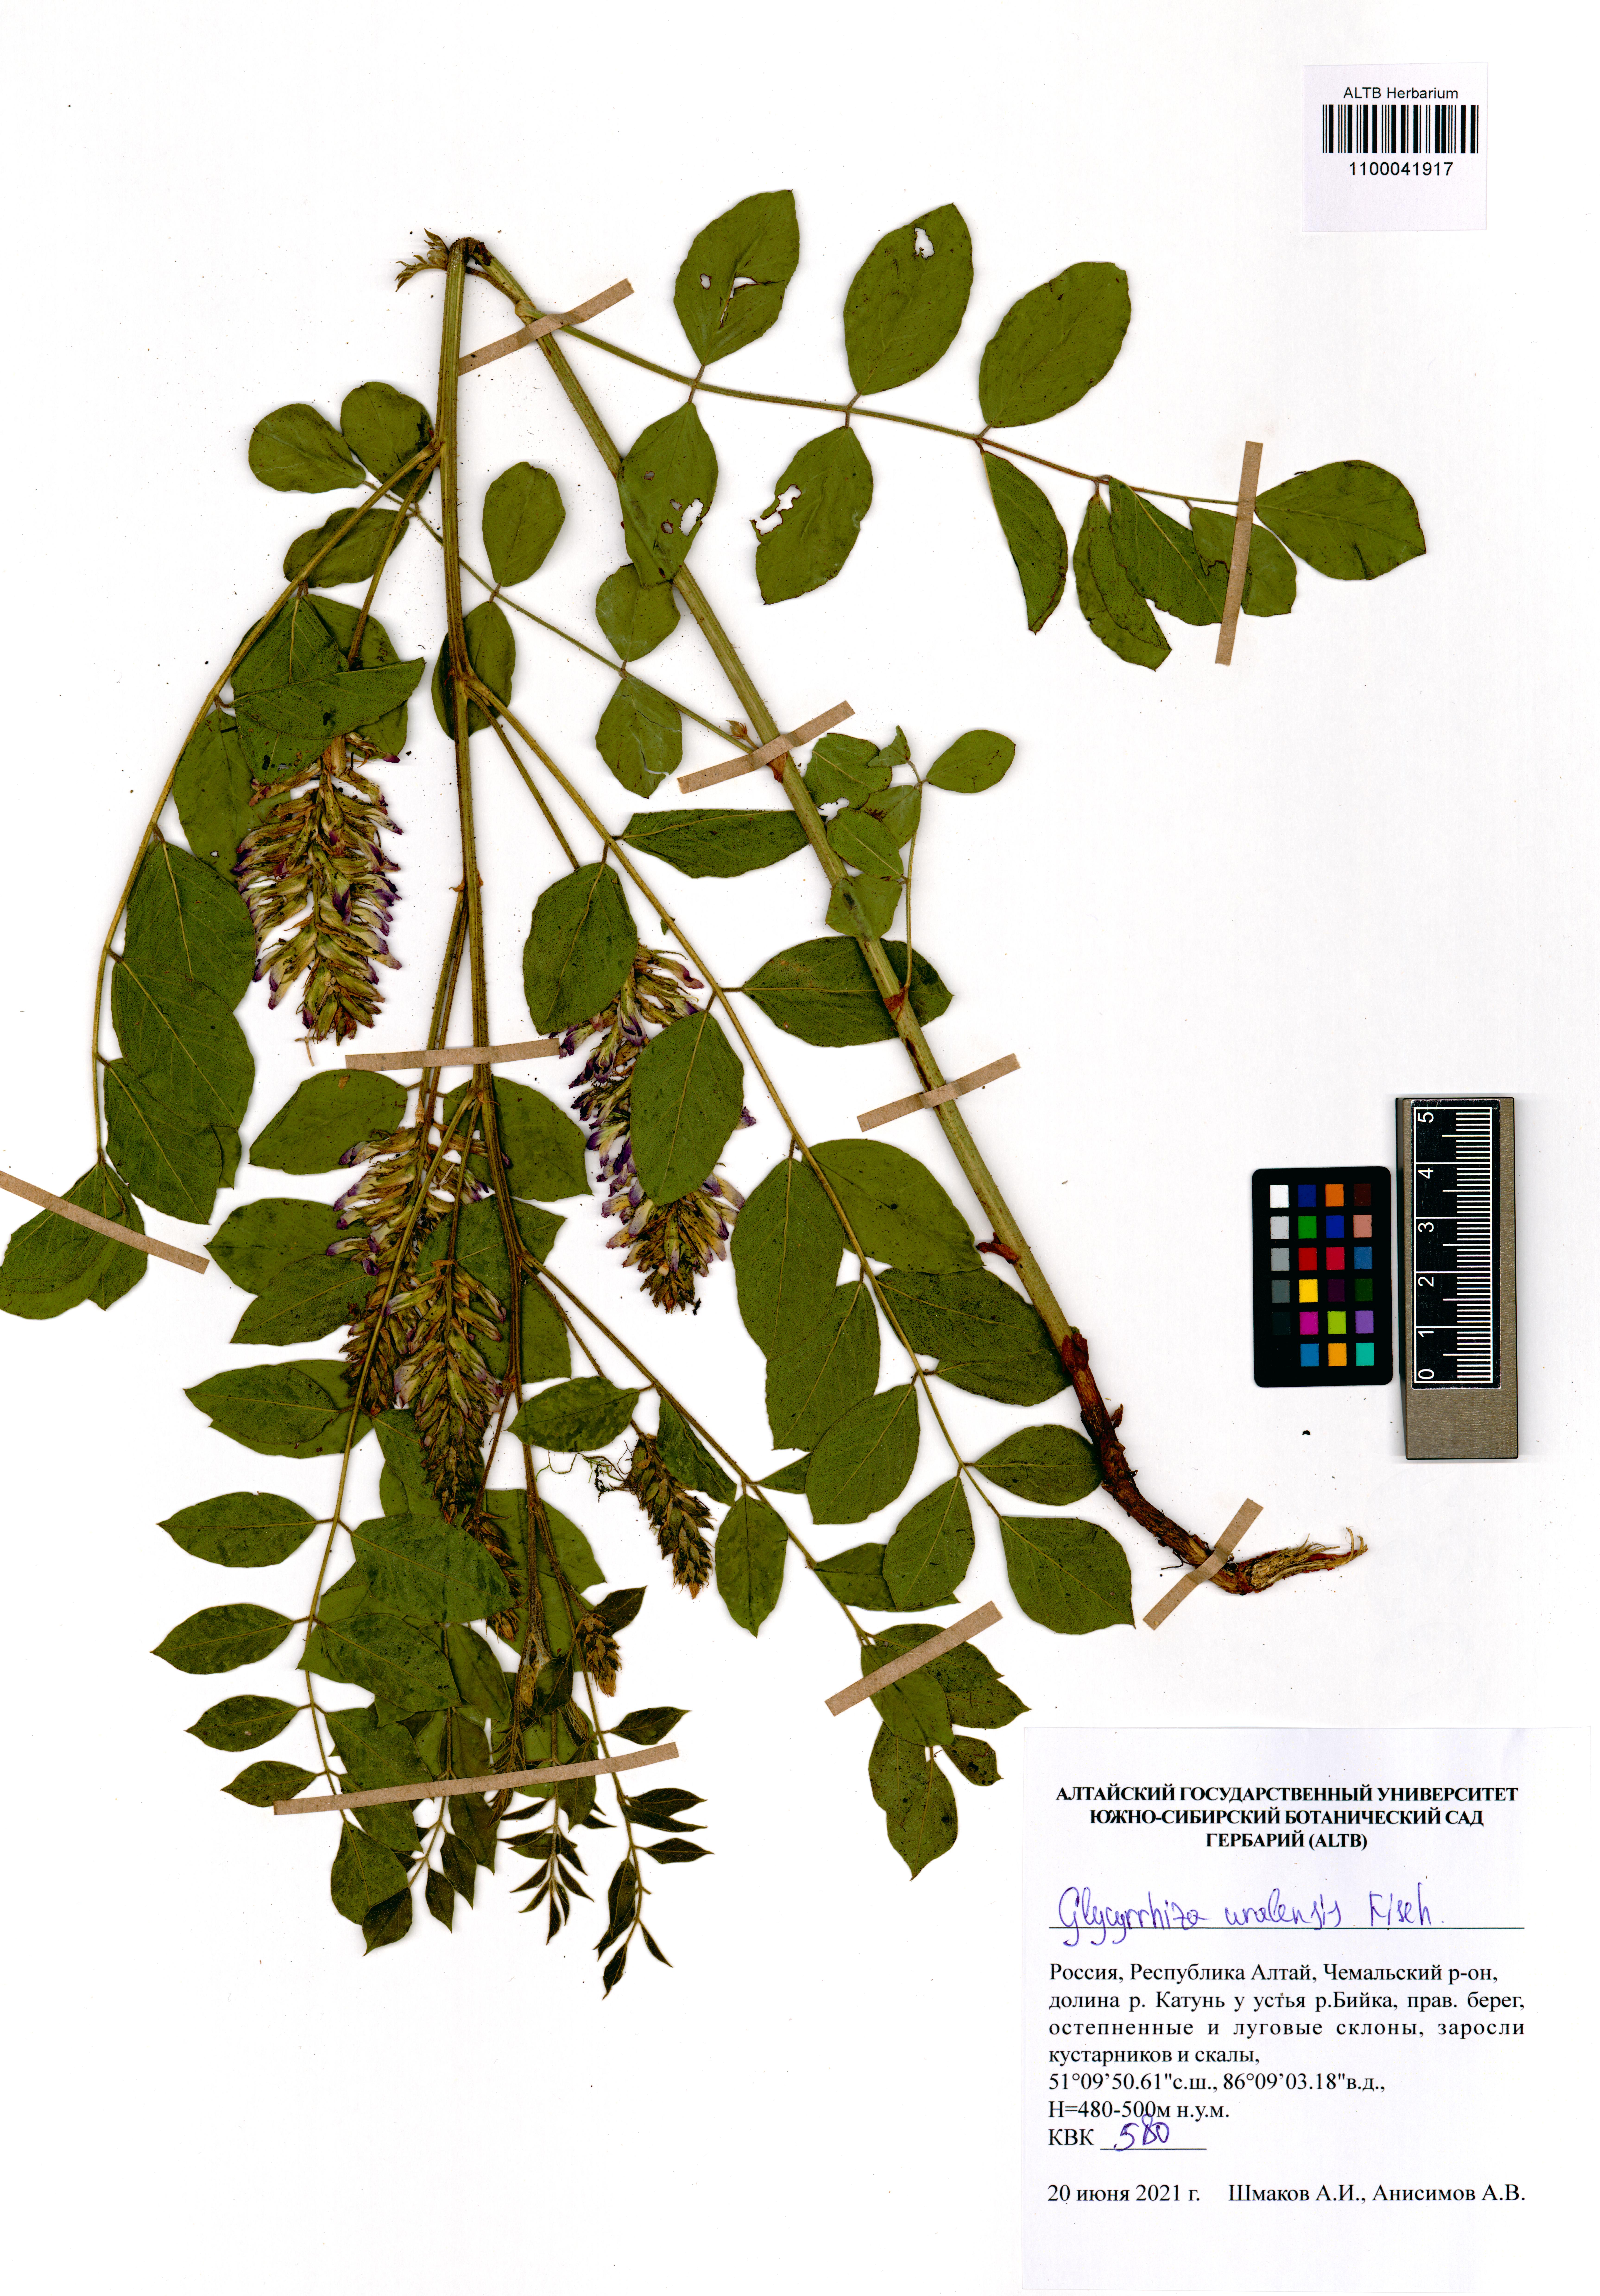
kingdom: Plantae
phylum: Tracheophyta
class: Magnoliopsida
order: Fabales
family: Fabaceae
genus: Glycyrrhiza
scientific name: Glycyrrhiza uralensis
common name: Chinese licorice
